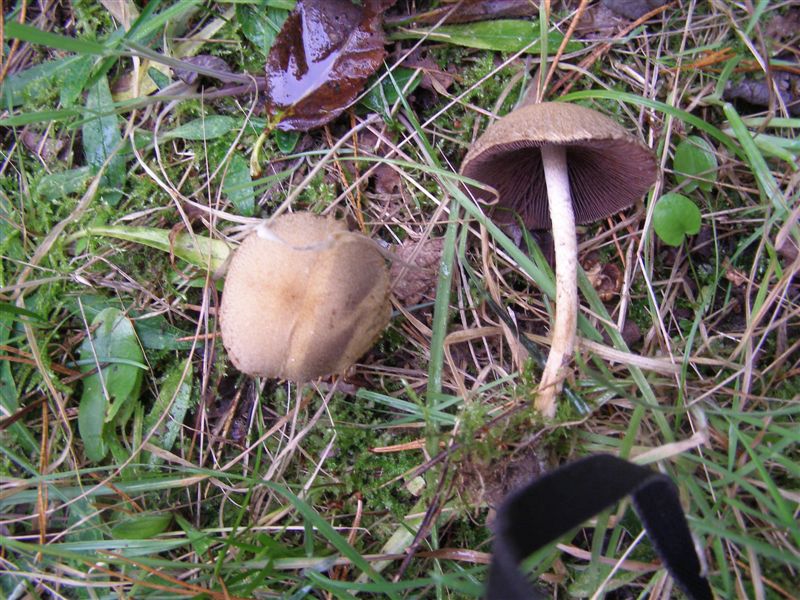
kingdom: Fungi
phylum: Basidiomycota
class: Agaricomycetes
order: Agaricales
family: Psathyrellaceae
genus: Lacrymaria
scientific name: Lacrymaria lacrymabunda
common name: grædende mørkhat
